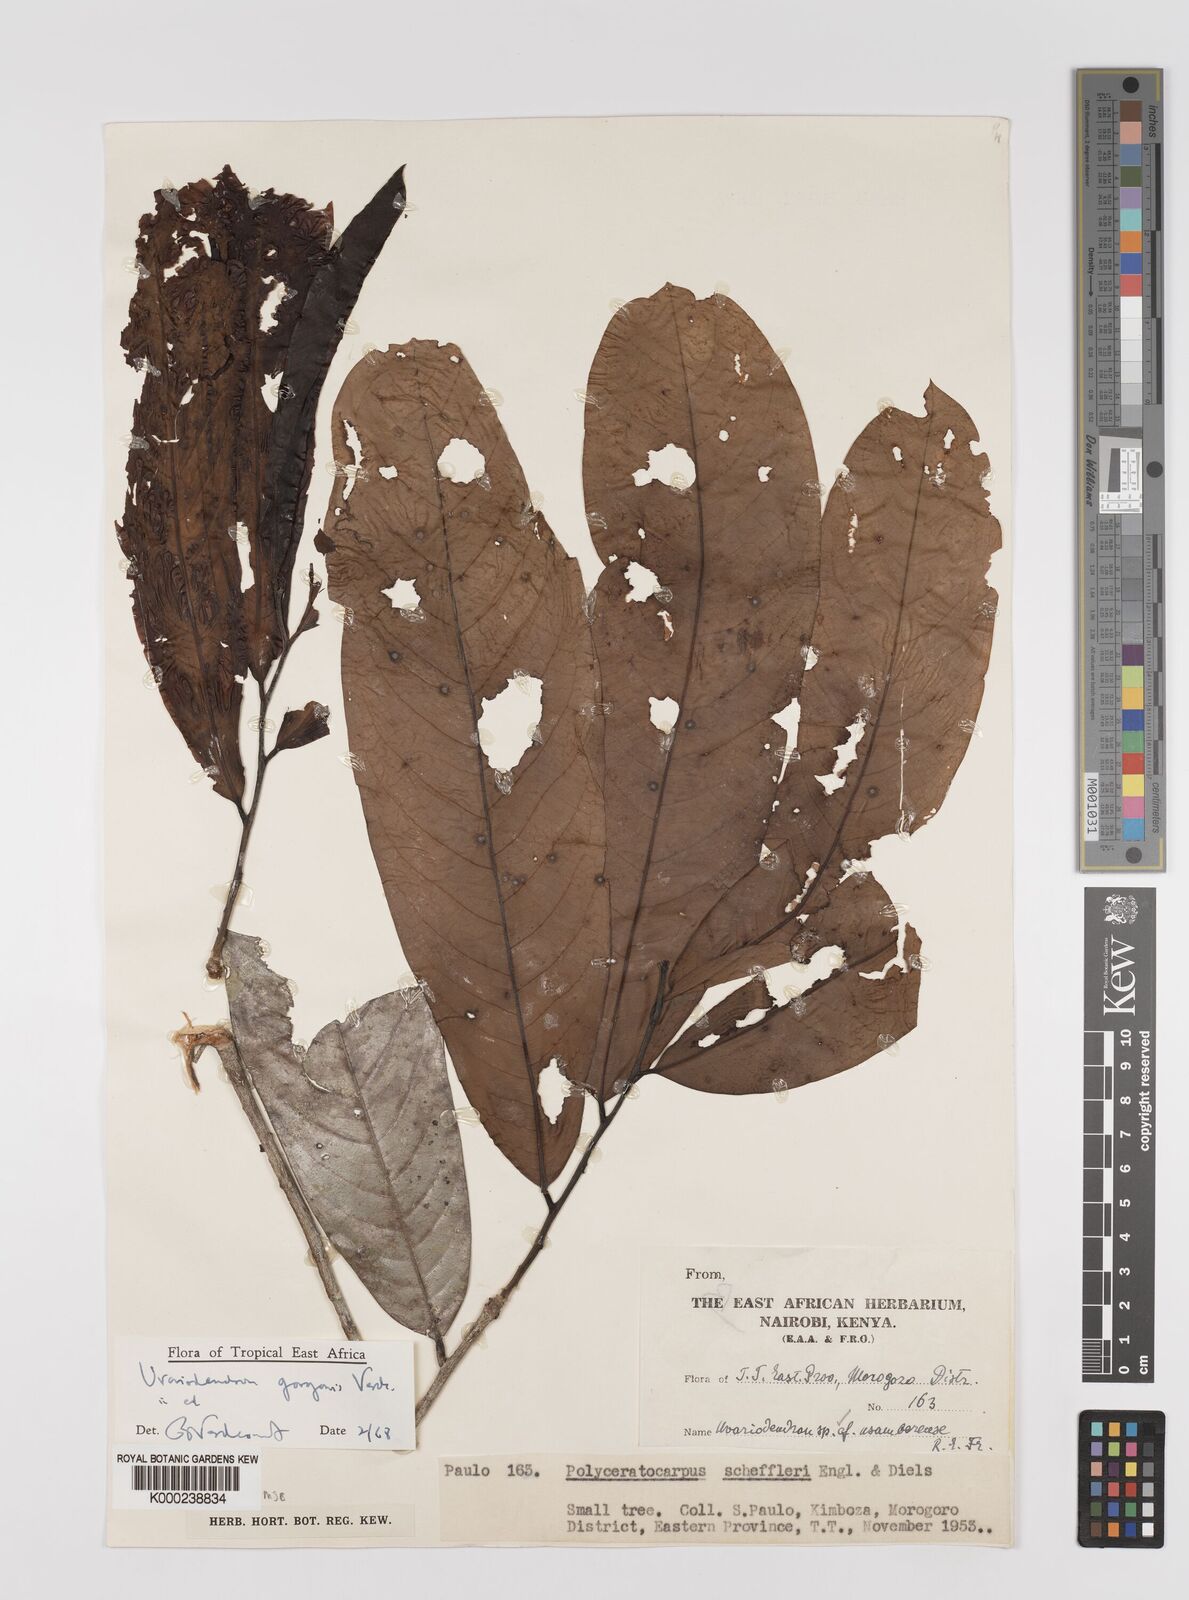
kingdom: Plantae
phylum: Tracheophyta
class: Magnoliopsida
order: Magnoliales
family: Annonaceae
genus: Uvariodendron
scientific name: Uvariodendron gorgonis
